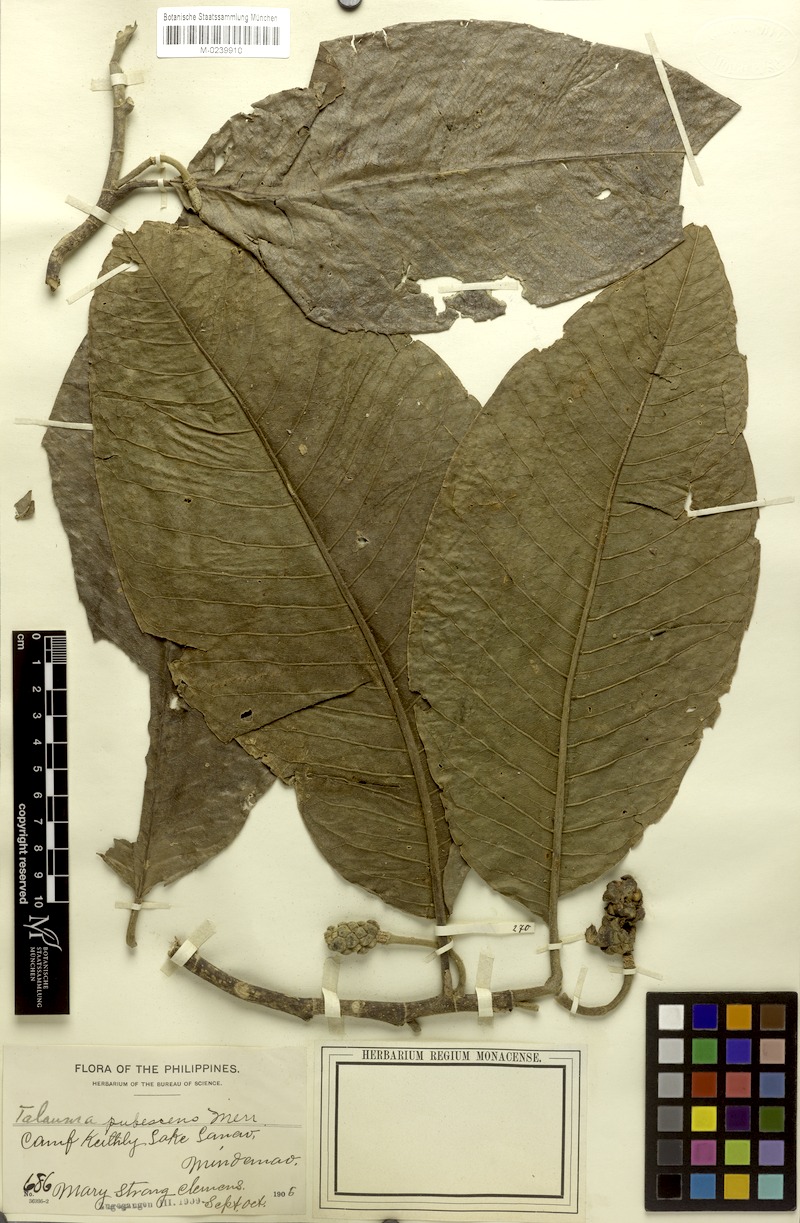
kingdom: Plantae
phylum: Tracheophyta
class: Magnoliopsida
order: Magnoliales
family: Magnoliaceae
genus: Magnolia
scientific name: Magnolia pubescens
